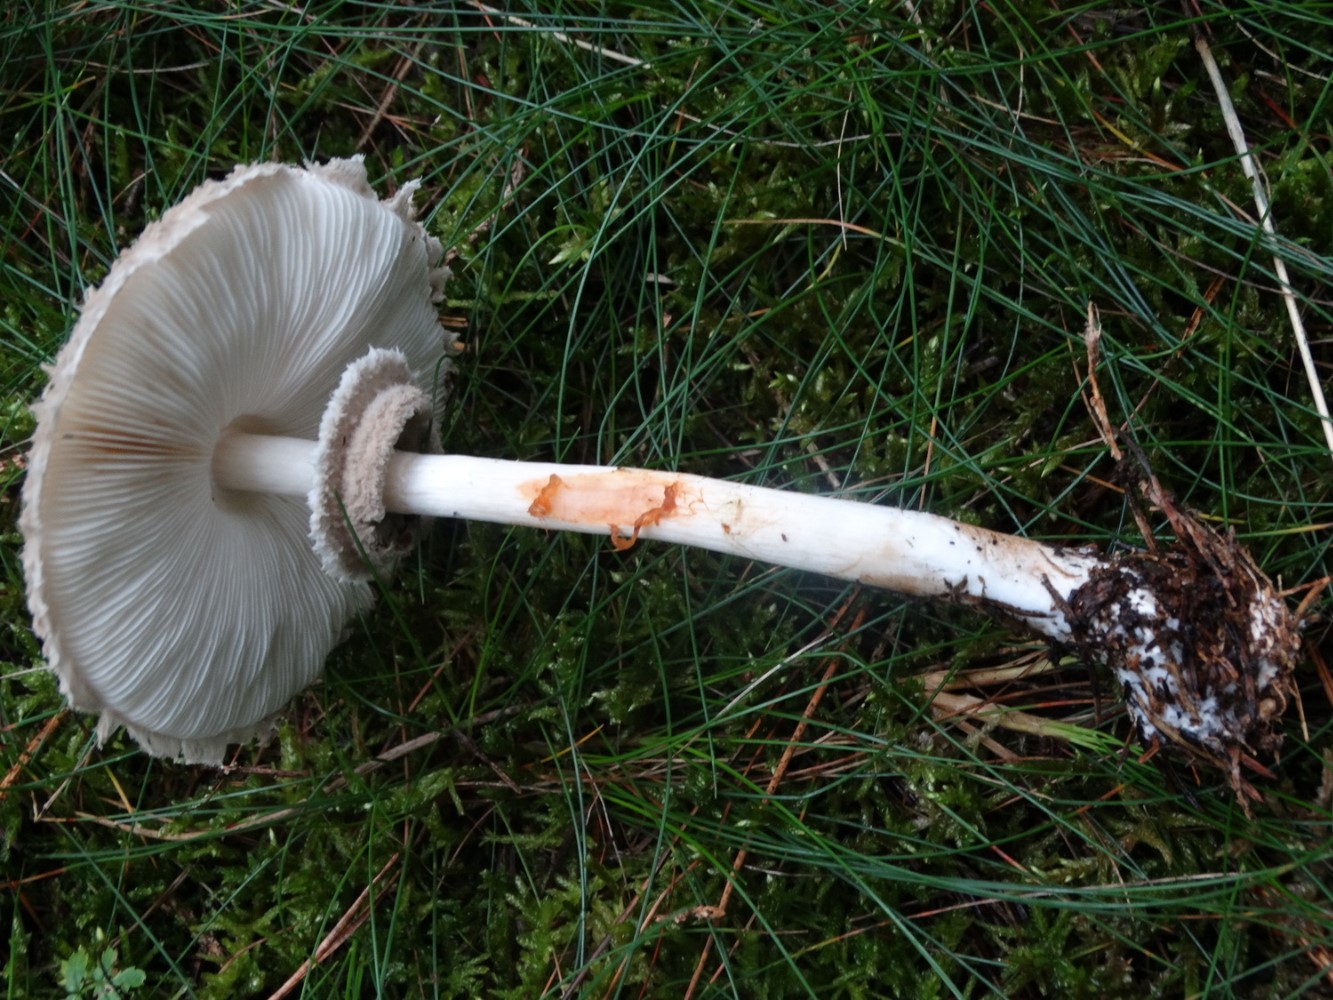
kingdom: Fungi
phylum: Basidiomycota
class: Agaricomycetes
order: Agaricales
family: Agaricaceae
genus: Chlorophyllum
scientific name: Chlorophyllum olivieri
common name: almindelig rabarberhat
